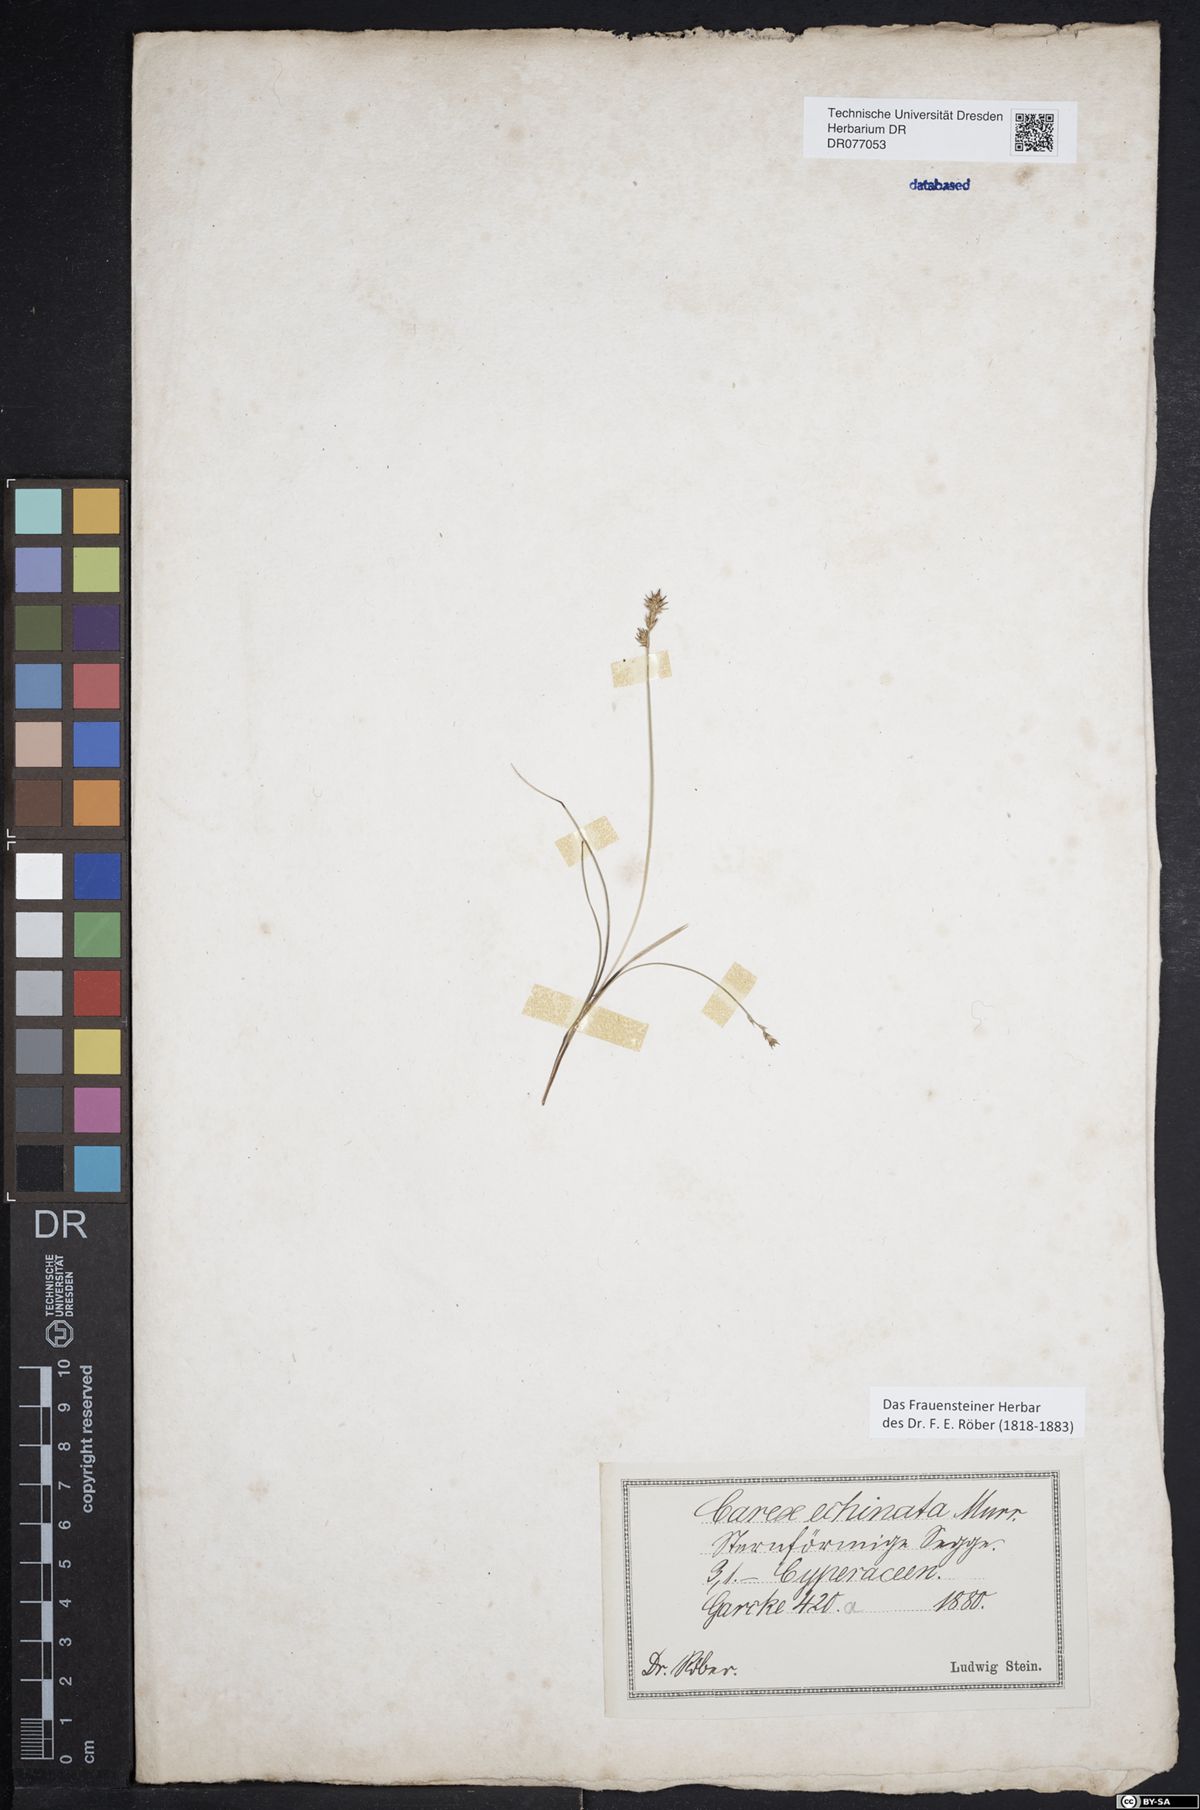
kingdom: Plantae
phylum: Tracheophyta
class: Liliopsida
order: Poales
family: Cyperaceae
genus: Carex
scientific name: Carex echinata
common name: Star sedge
